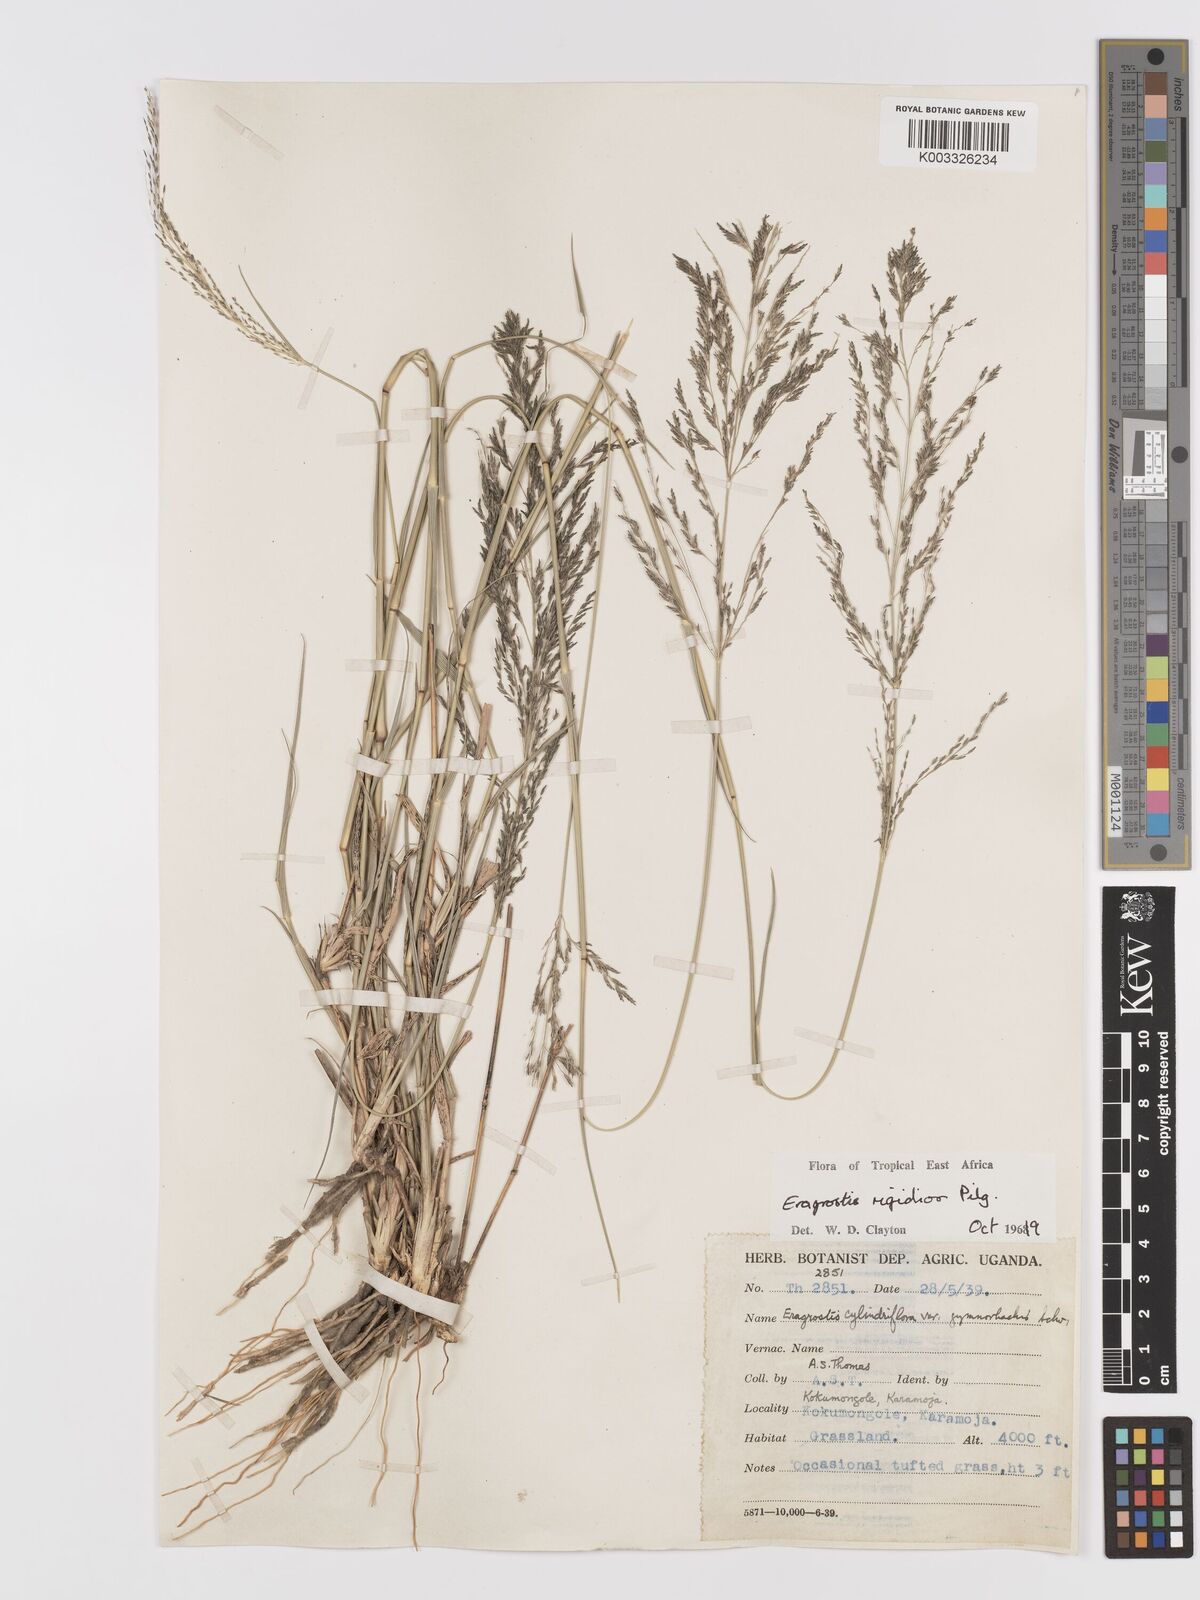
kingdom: Plantae
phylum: Tracheophyta
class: Liliopsida
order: Poales
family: Poaceae
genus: Eragrostis
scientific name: Eragrostis cylindriflora
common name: Cylinderflower lovegrass
